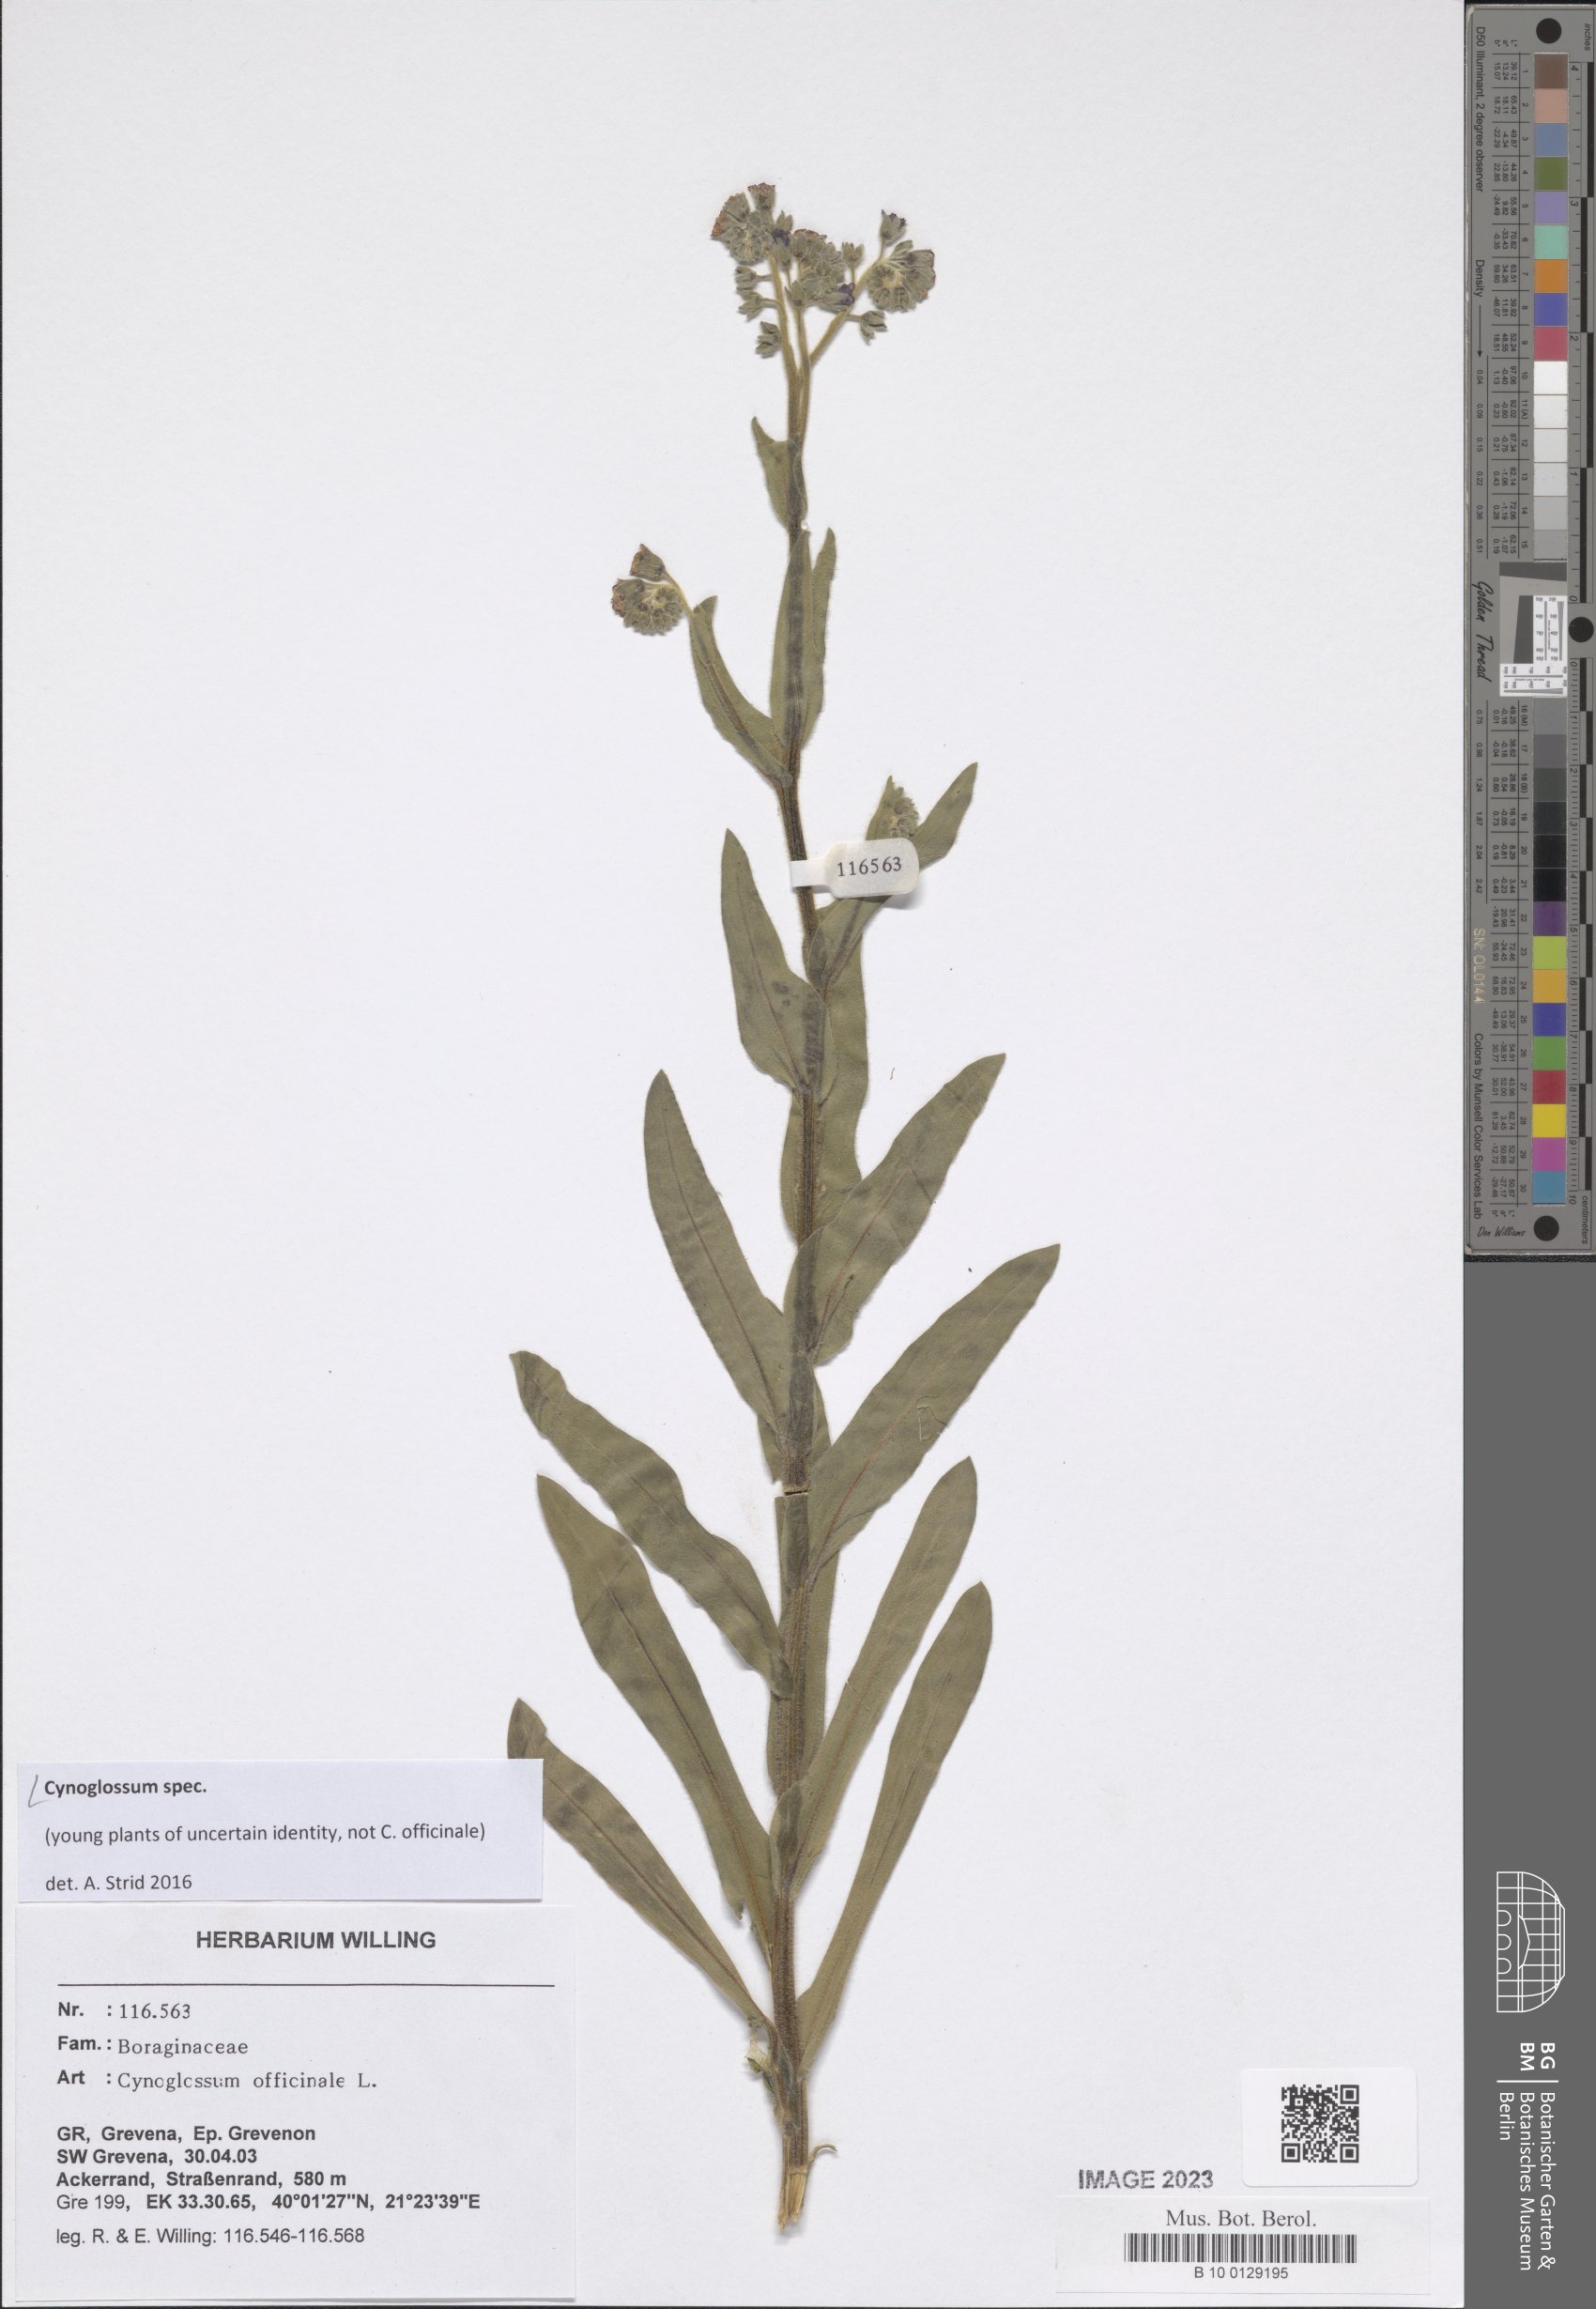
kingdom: Plantae
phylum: Tracheophyta
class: Magnoliopsida
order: Boraginales
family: Boraginaceae
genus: Cynoglossum
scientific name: Cynoglossum
